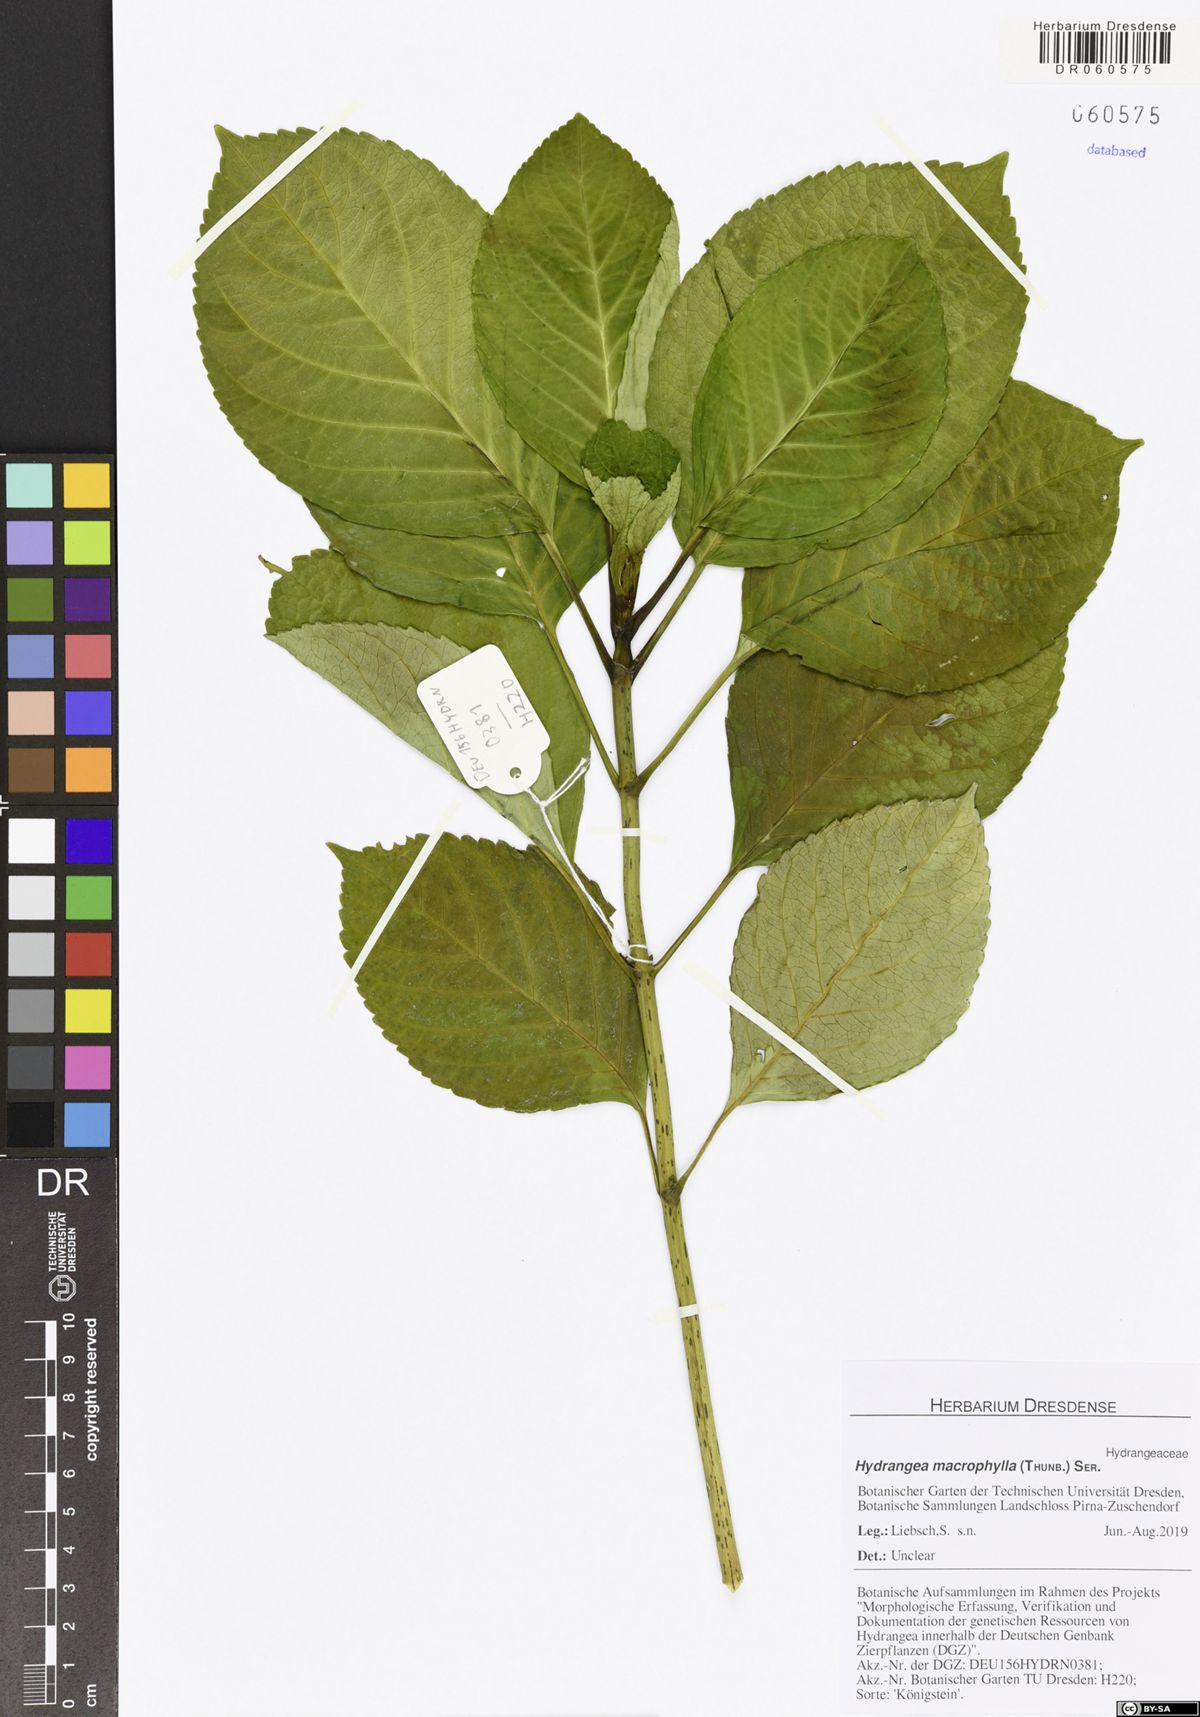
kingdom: Plantae
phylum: Tracheophyta
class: Magnoliopsida
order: Cornales
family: Hydrangeaceae
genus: Hydrangea
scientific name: Hydrangea macrophylla
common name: Hydrangea
